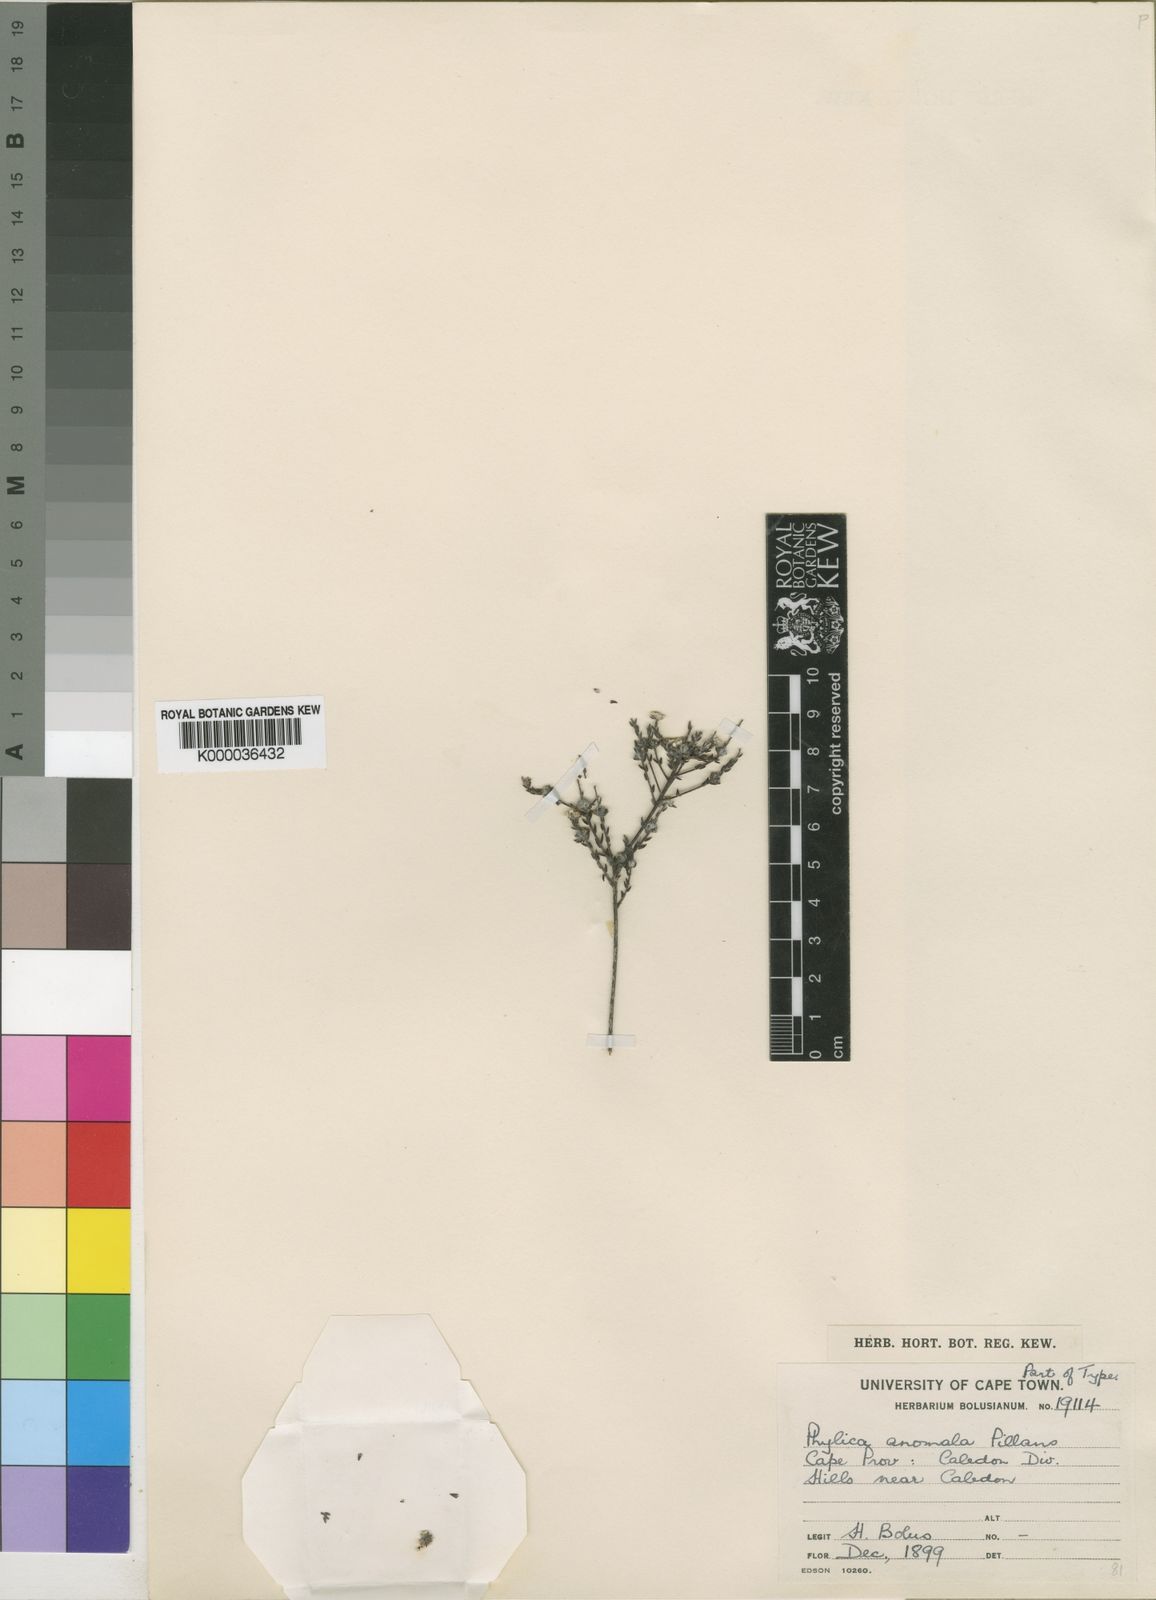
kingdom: Plantae
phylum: Tracheophyta
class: Magnoliopsida
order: Rosales
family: Rhamnaceae
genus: Phylica
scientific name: Phylica anomala
